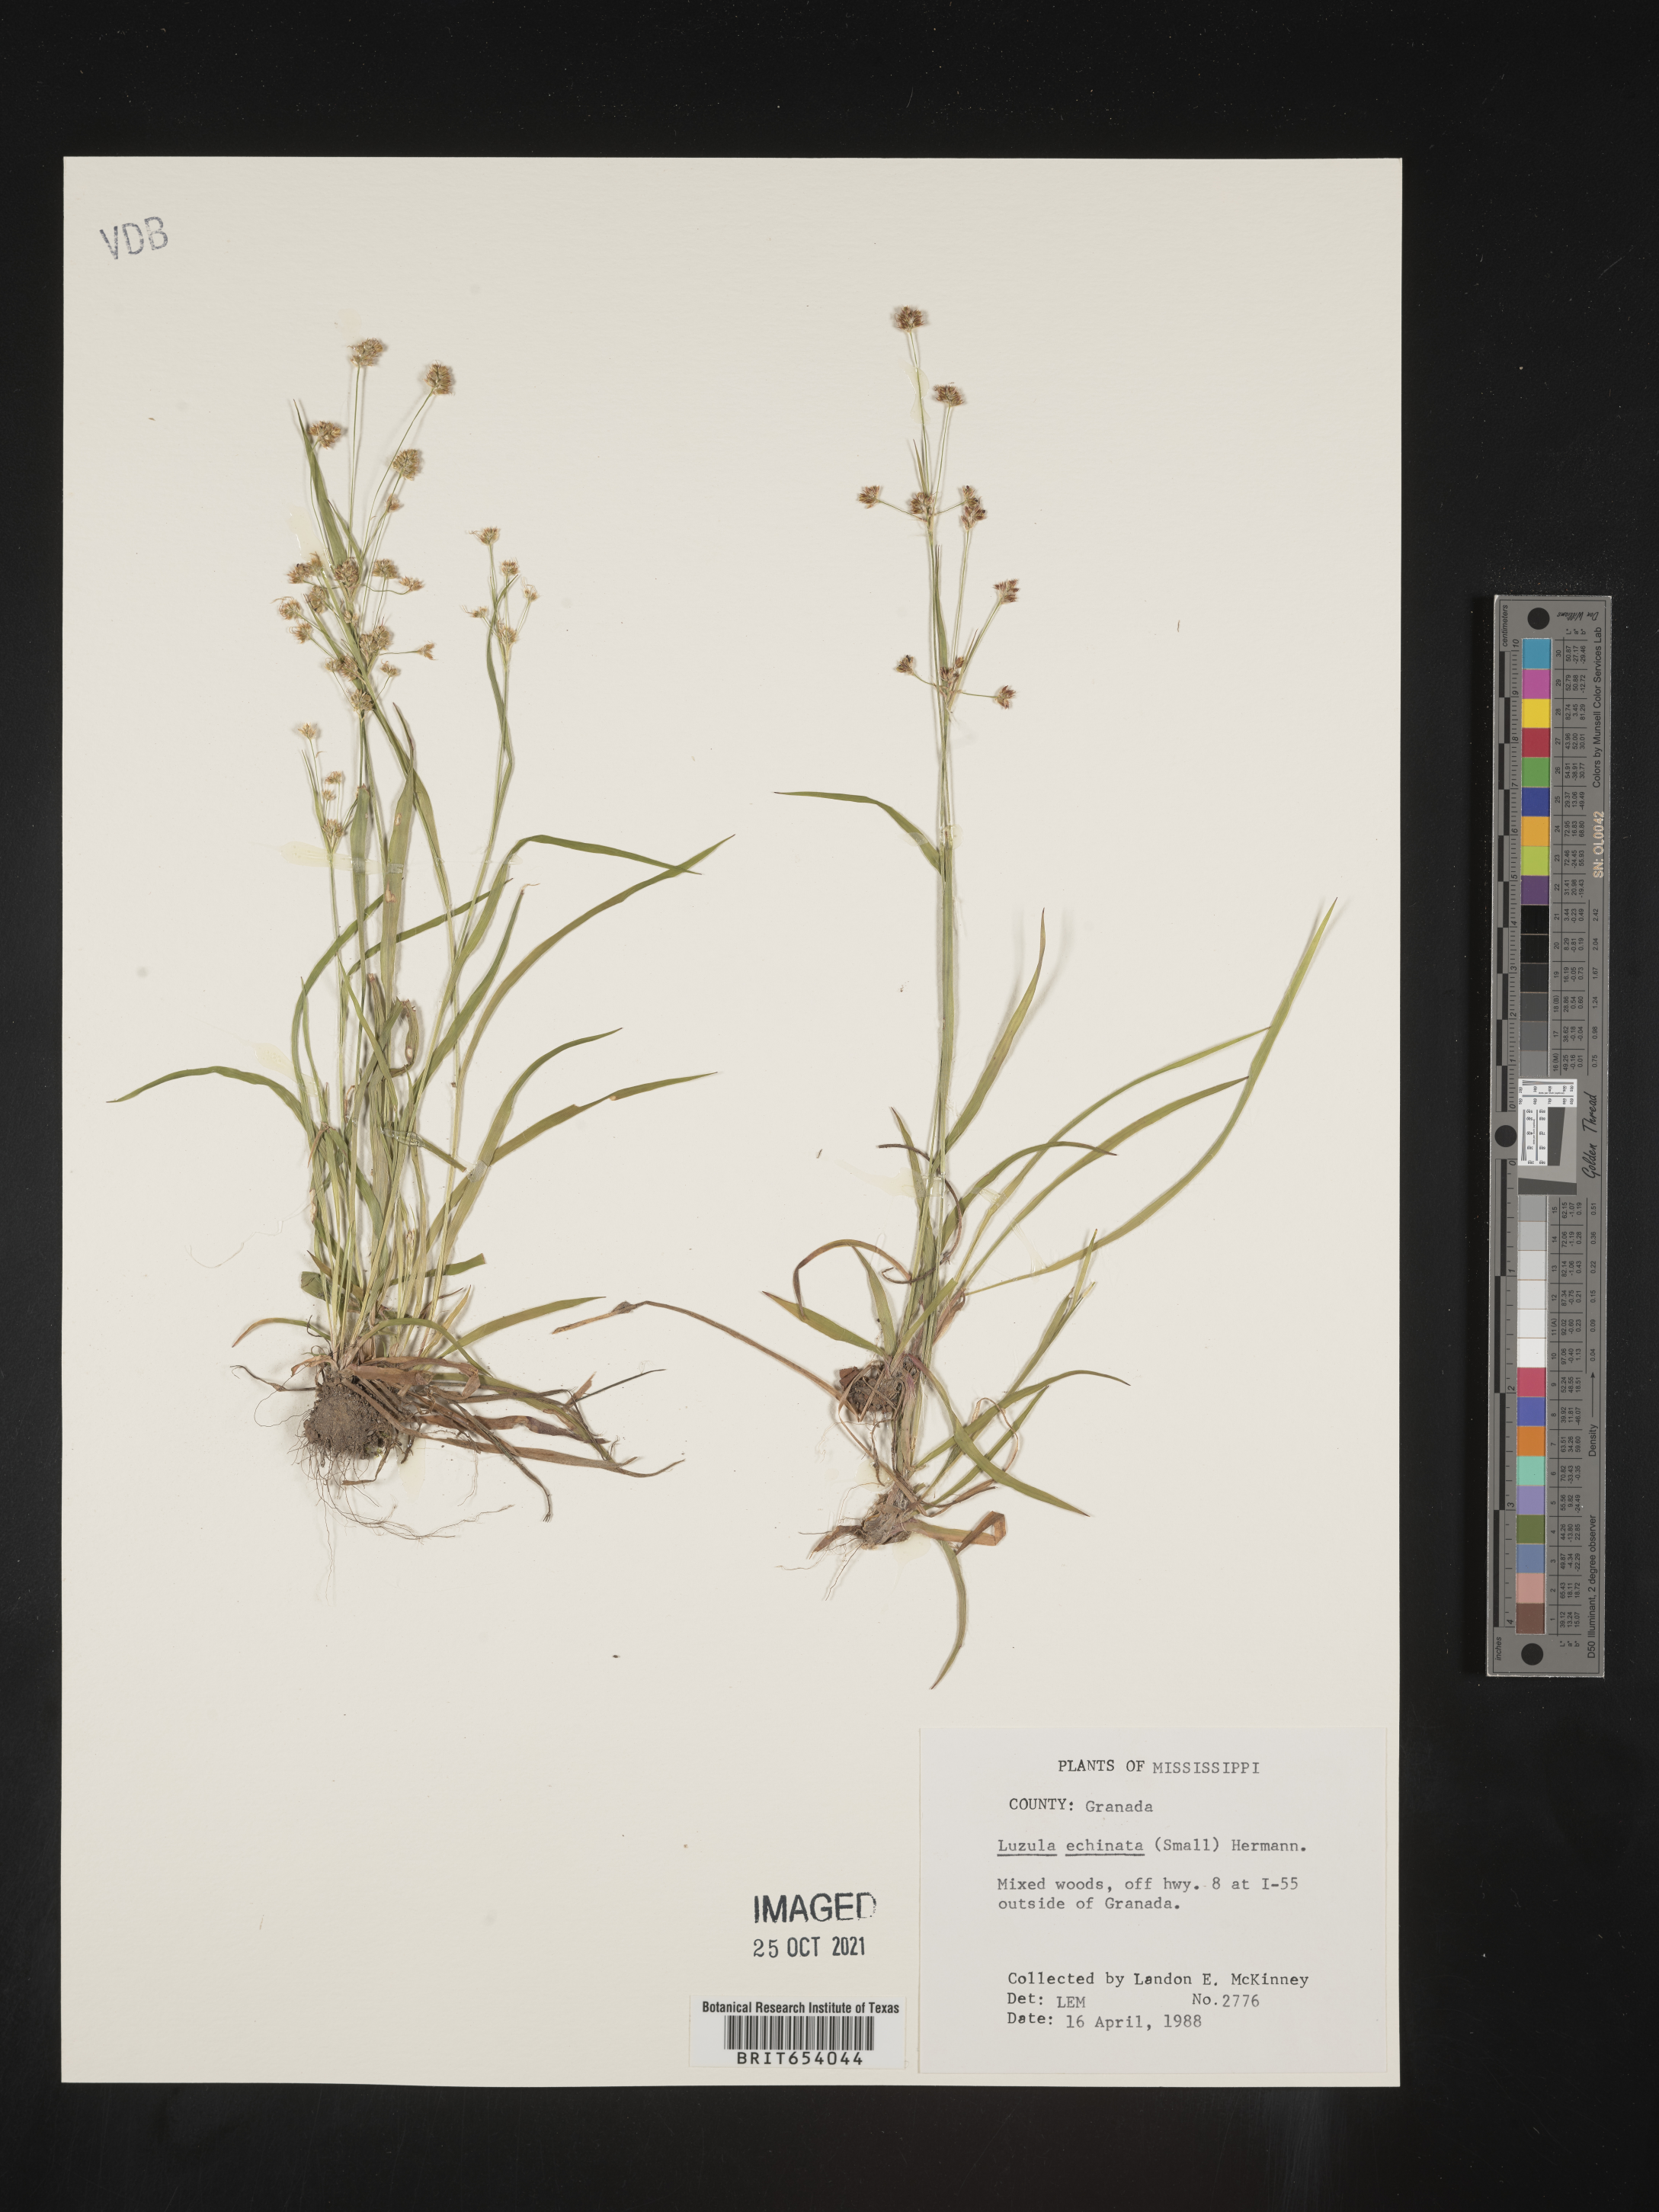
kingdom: Plantae
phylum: Tracheophyta
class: Liliopsida
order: Poales
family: Juncaceae
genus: Luzula
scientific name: Luzula echinata
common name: Hedgehog woodrush
